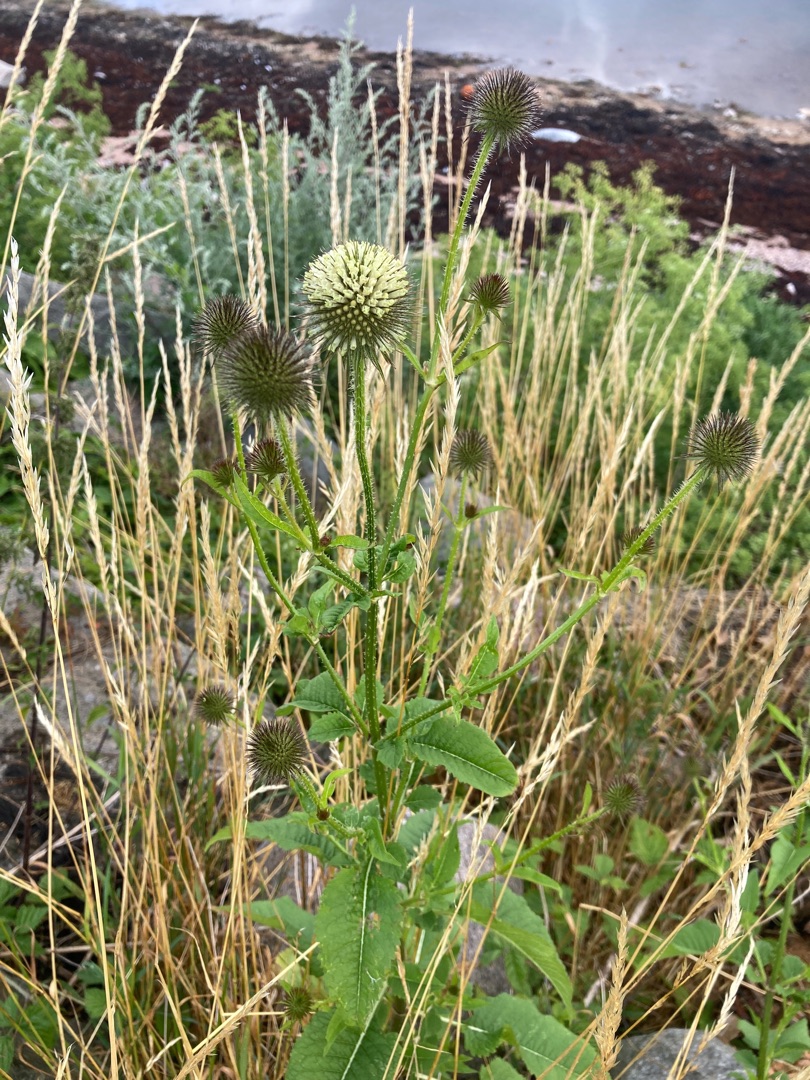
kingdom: Plantae
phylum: Tracheophyta
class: Magnoliopsida
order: Dipsacales
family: Caprifoliaceae
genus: Dipsacus
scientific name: Dipsacus strigosus
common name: Pindsvin-kartebolle
